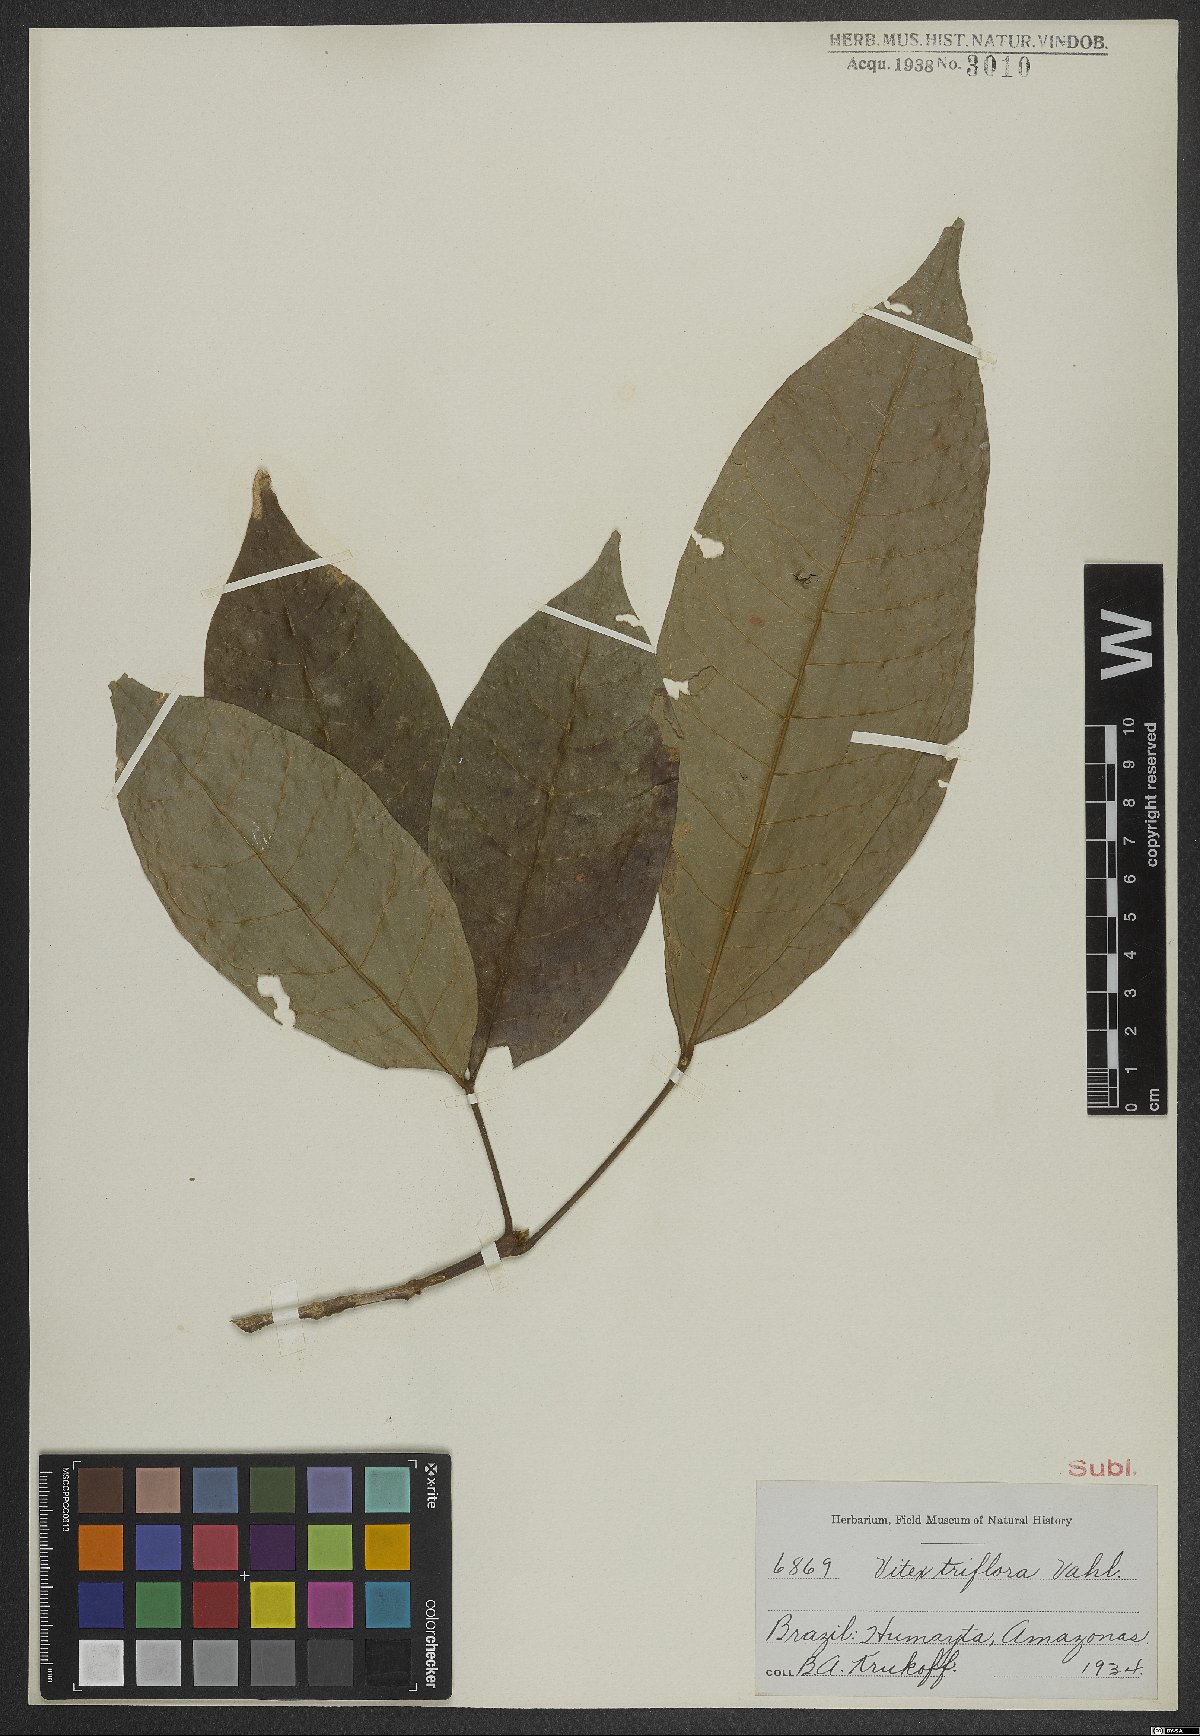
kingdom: Plantae
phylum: Tracheophyta
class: Magnoliopsida
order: Lamiales
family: Lamiaceae
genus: Vitex
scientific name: Vitex triflora
